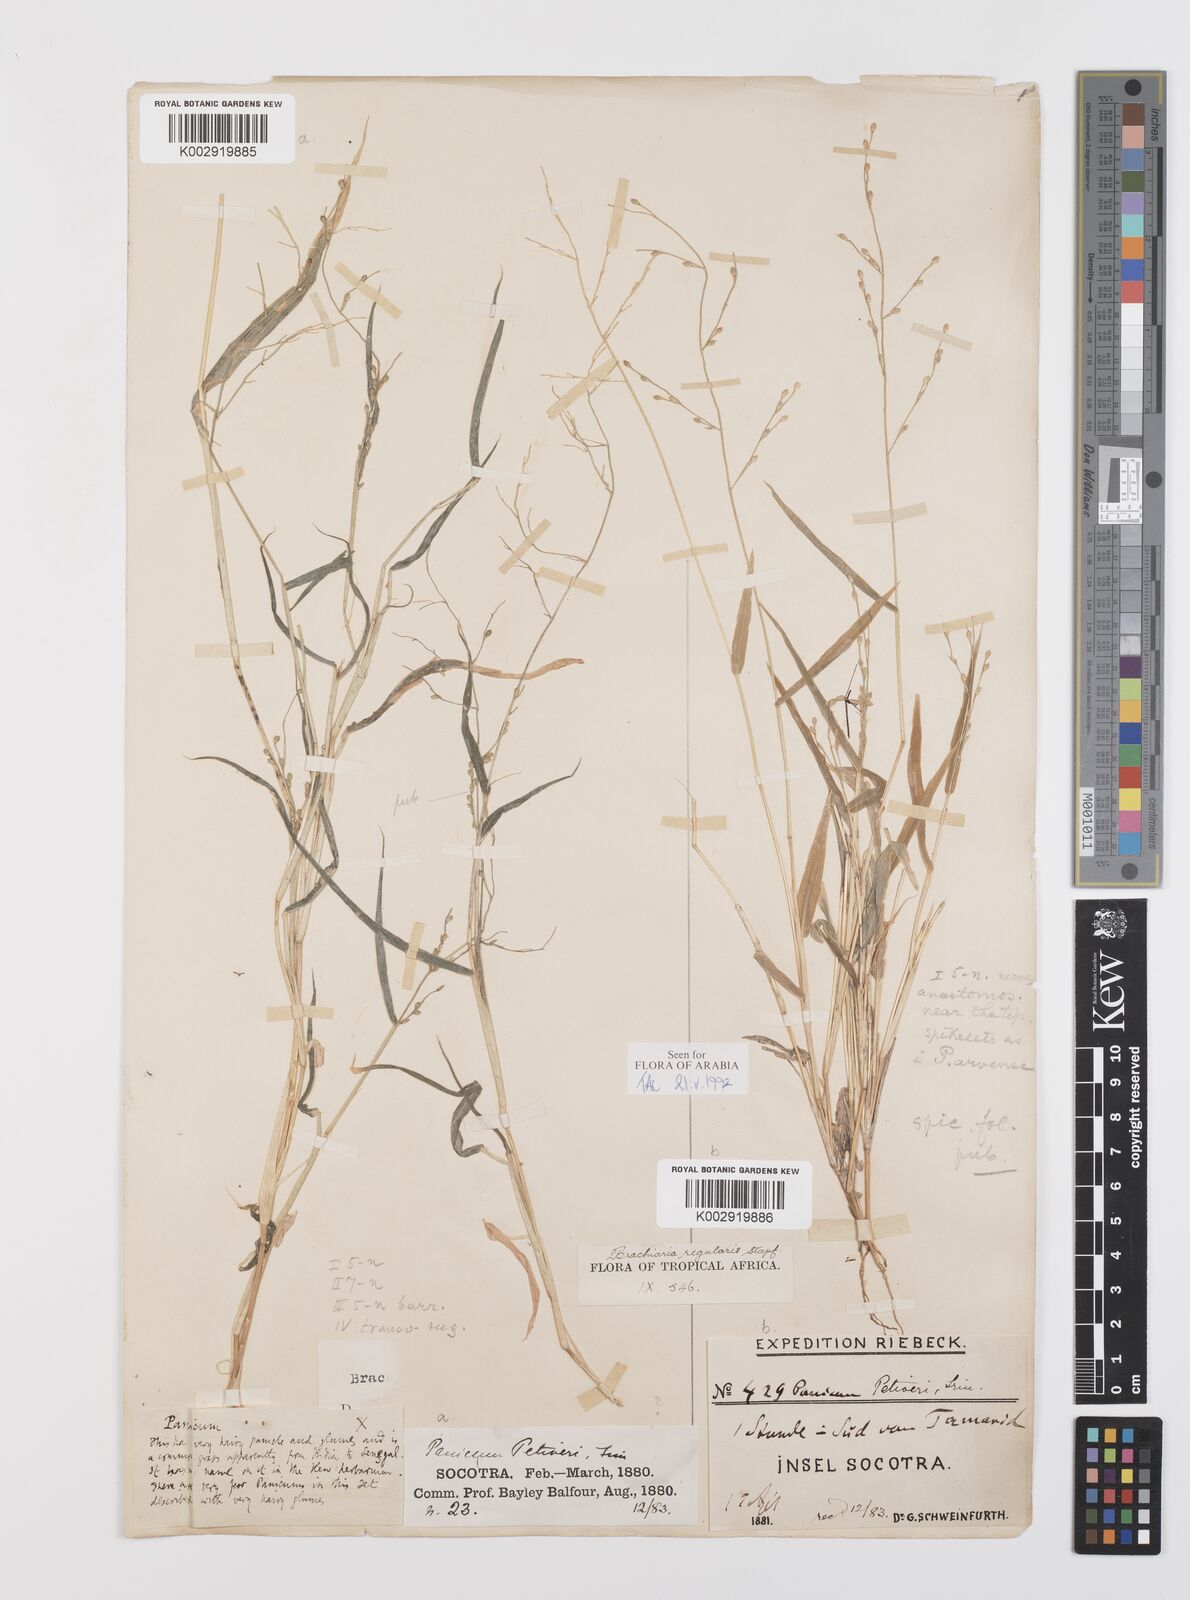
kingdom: Plantae
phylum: Tracheophyta
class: Liliopsida
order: Poales
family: Poaceae
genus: Urochloa
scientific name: Urochloa deflexa
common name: Guinea millet
